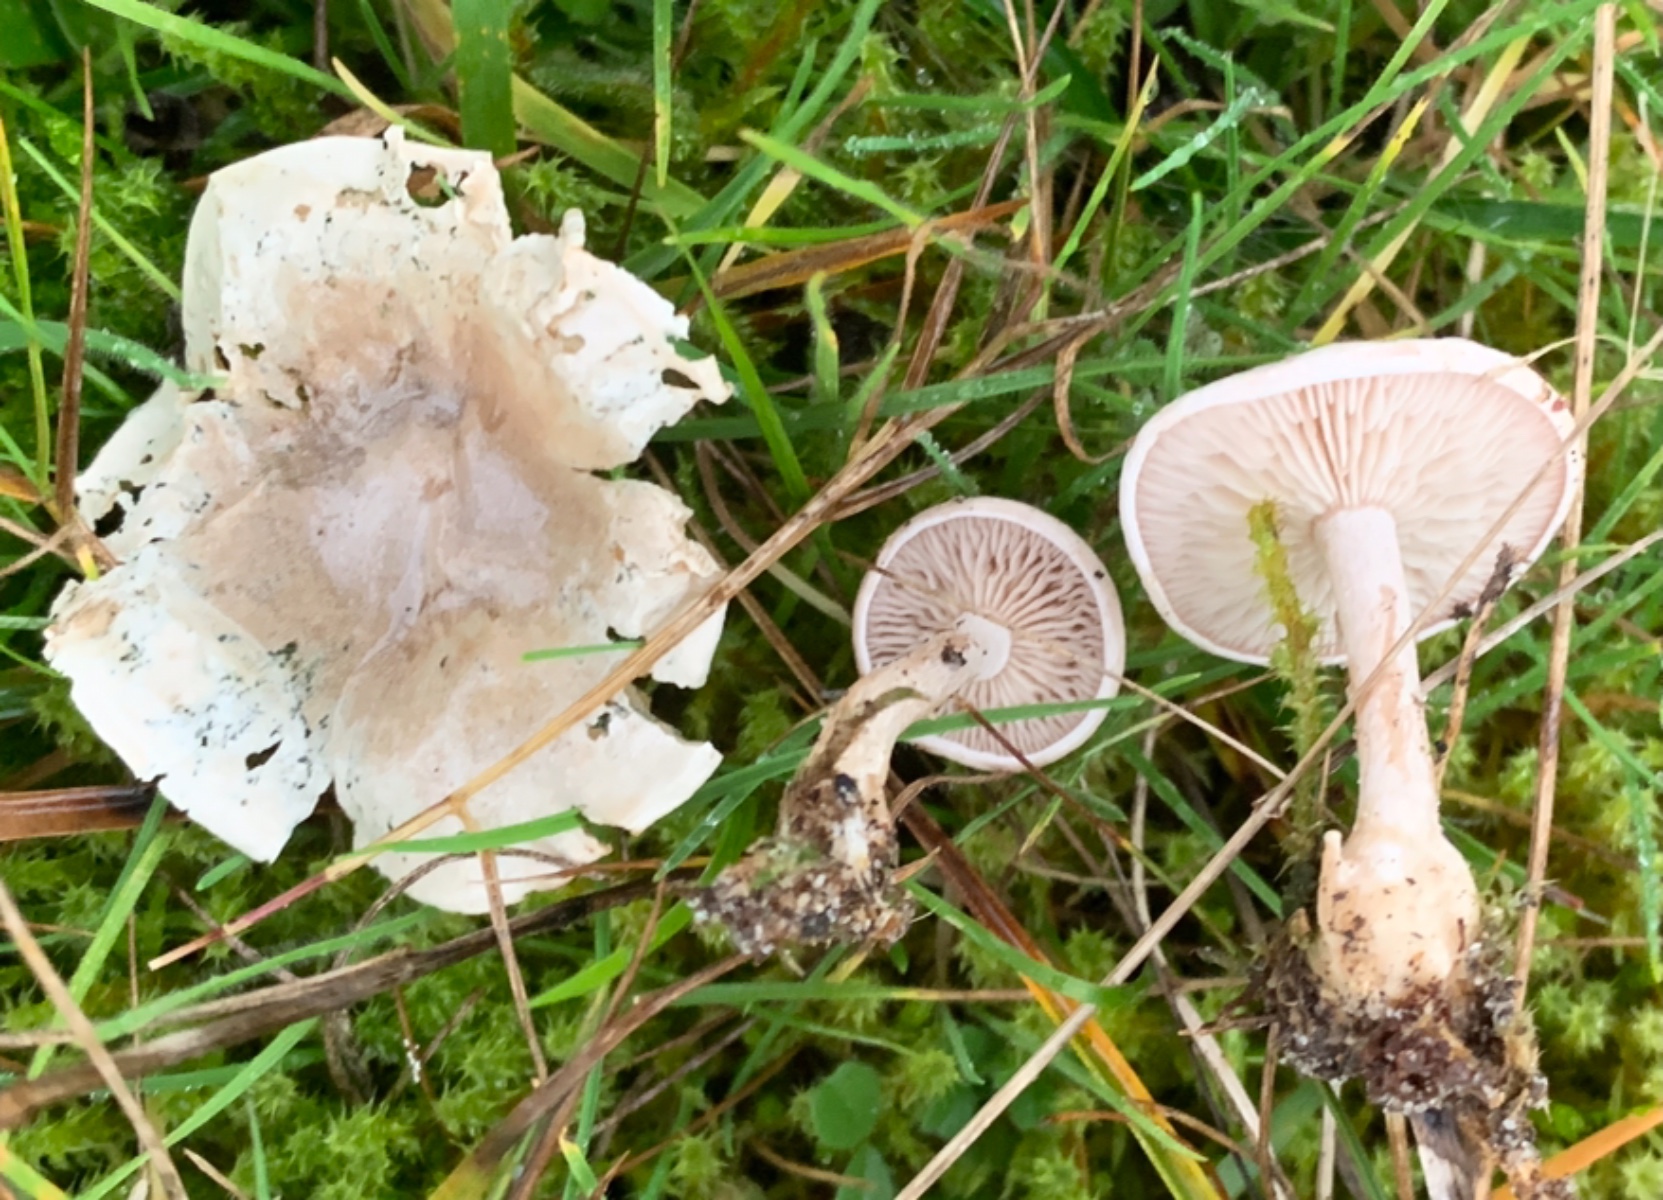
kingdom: Fungi
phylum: Basidiomycota
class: Agaricomycetes
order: Agaricales
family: Tricholomataceae
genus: Clitocybe
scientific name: Clitocybe rivulosa
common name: eng-tragthat
